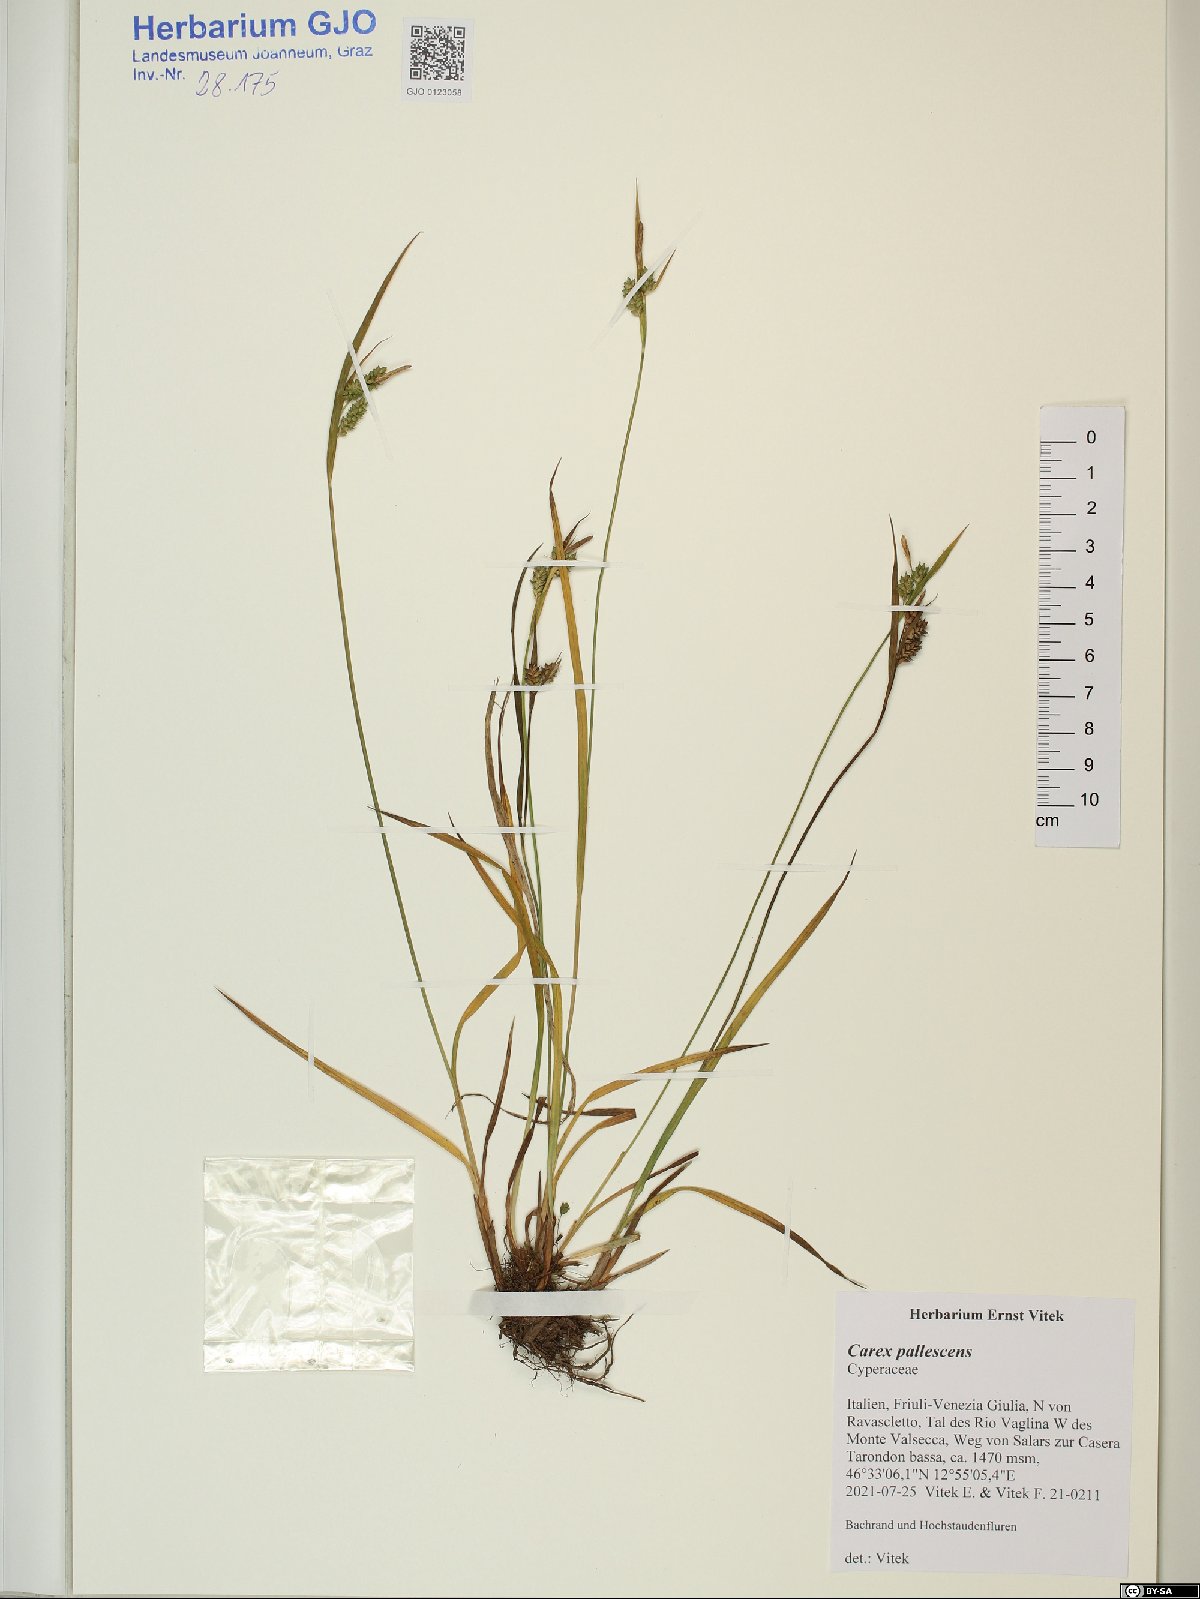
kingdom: Plantae
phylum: Tracheophyta
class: Liliopsida
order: Poales
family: Cyperaceae
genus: Carex
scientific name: Carex pallescens
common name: Pale sedge
